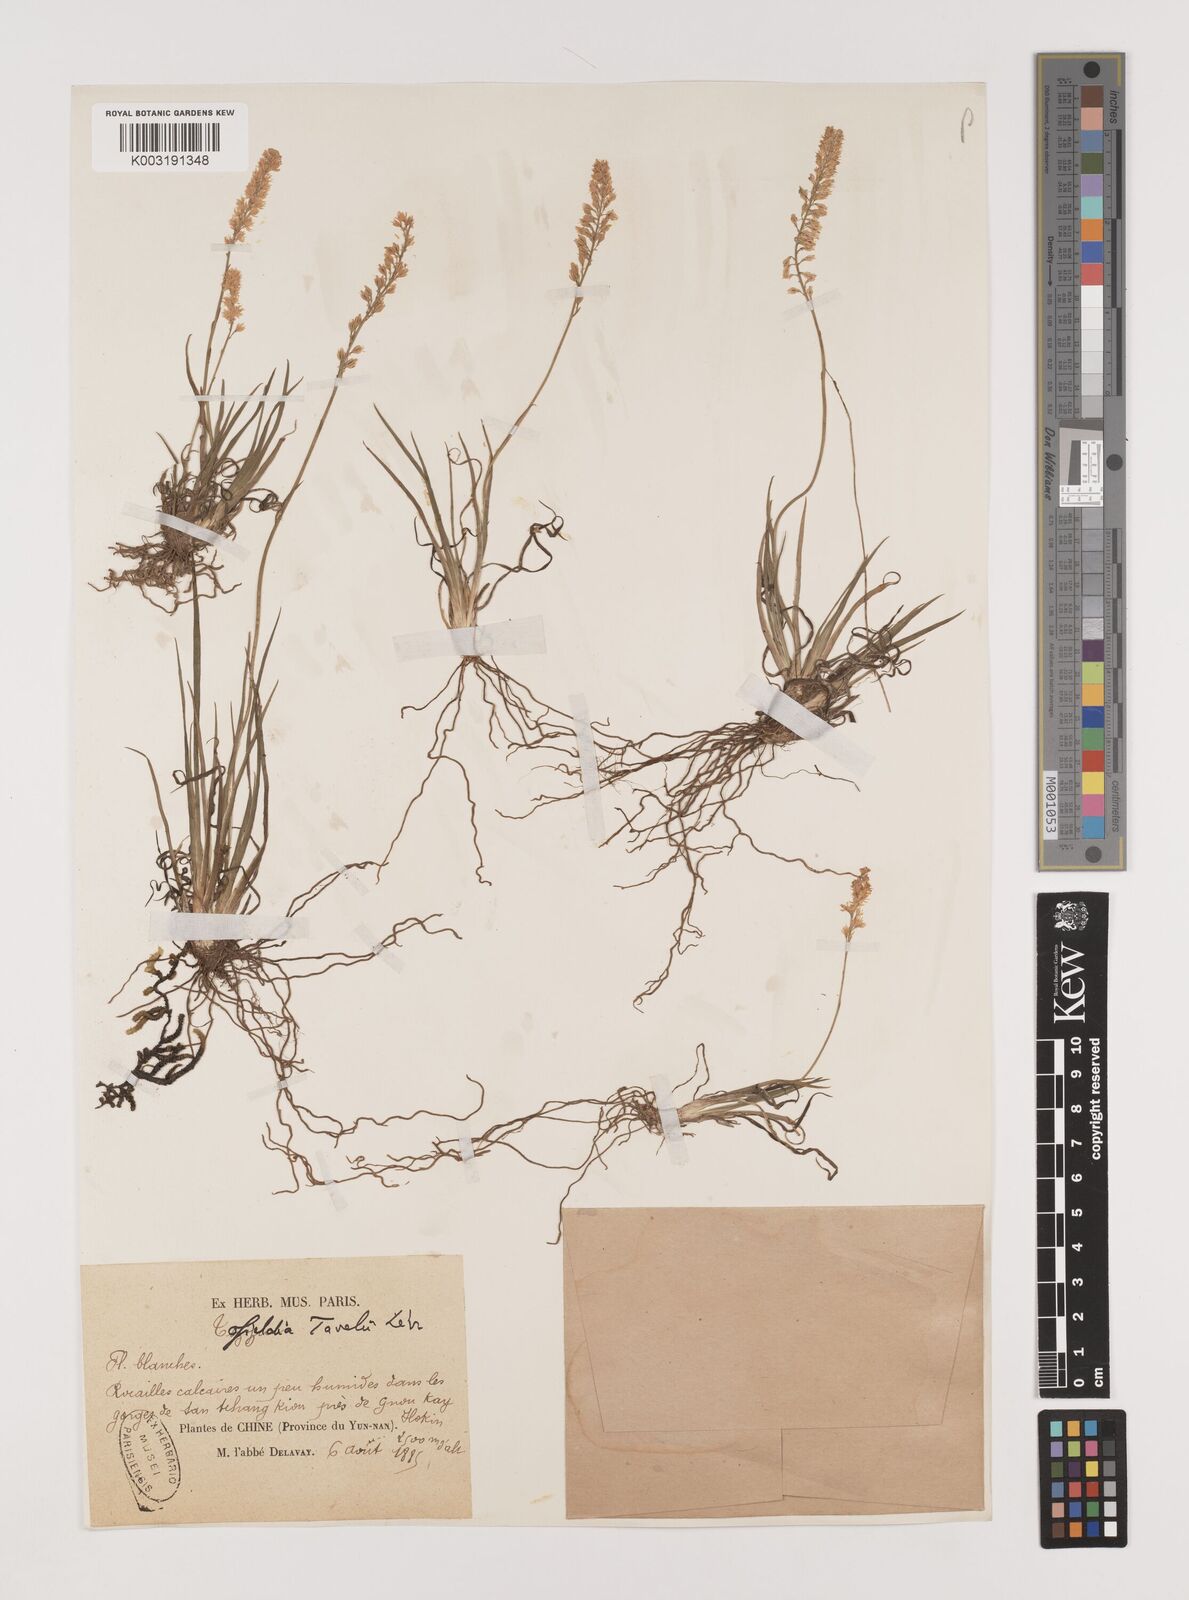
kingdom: Plantae
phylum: Tracheophyta
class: Liliopsida
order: Alismatales
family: Tofieldiaceae
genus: Tofieldia
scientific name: Tofieldia
